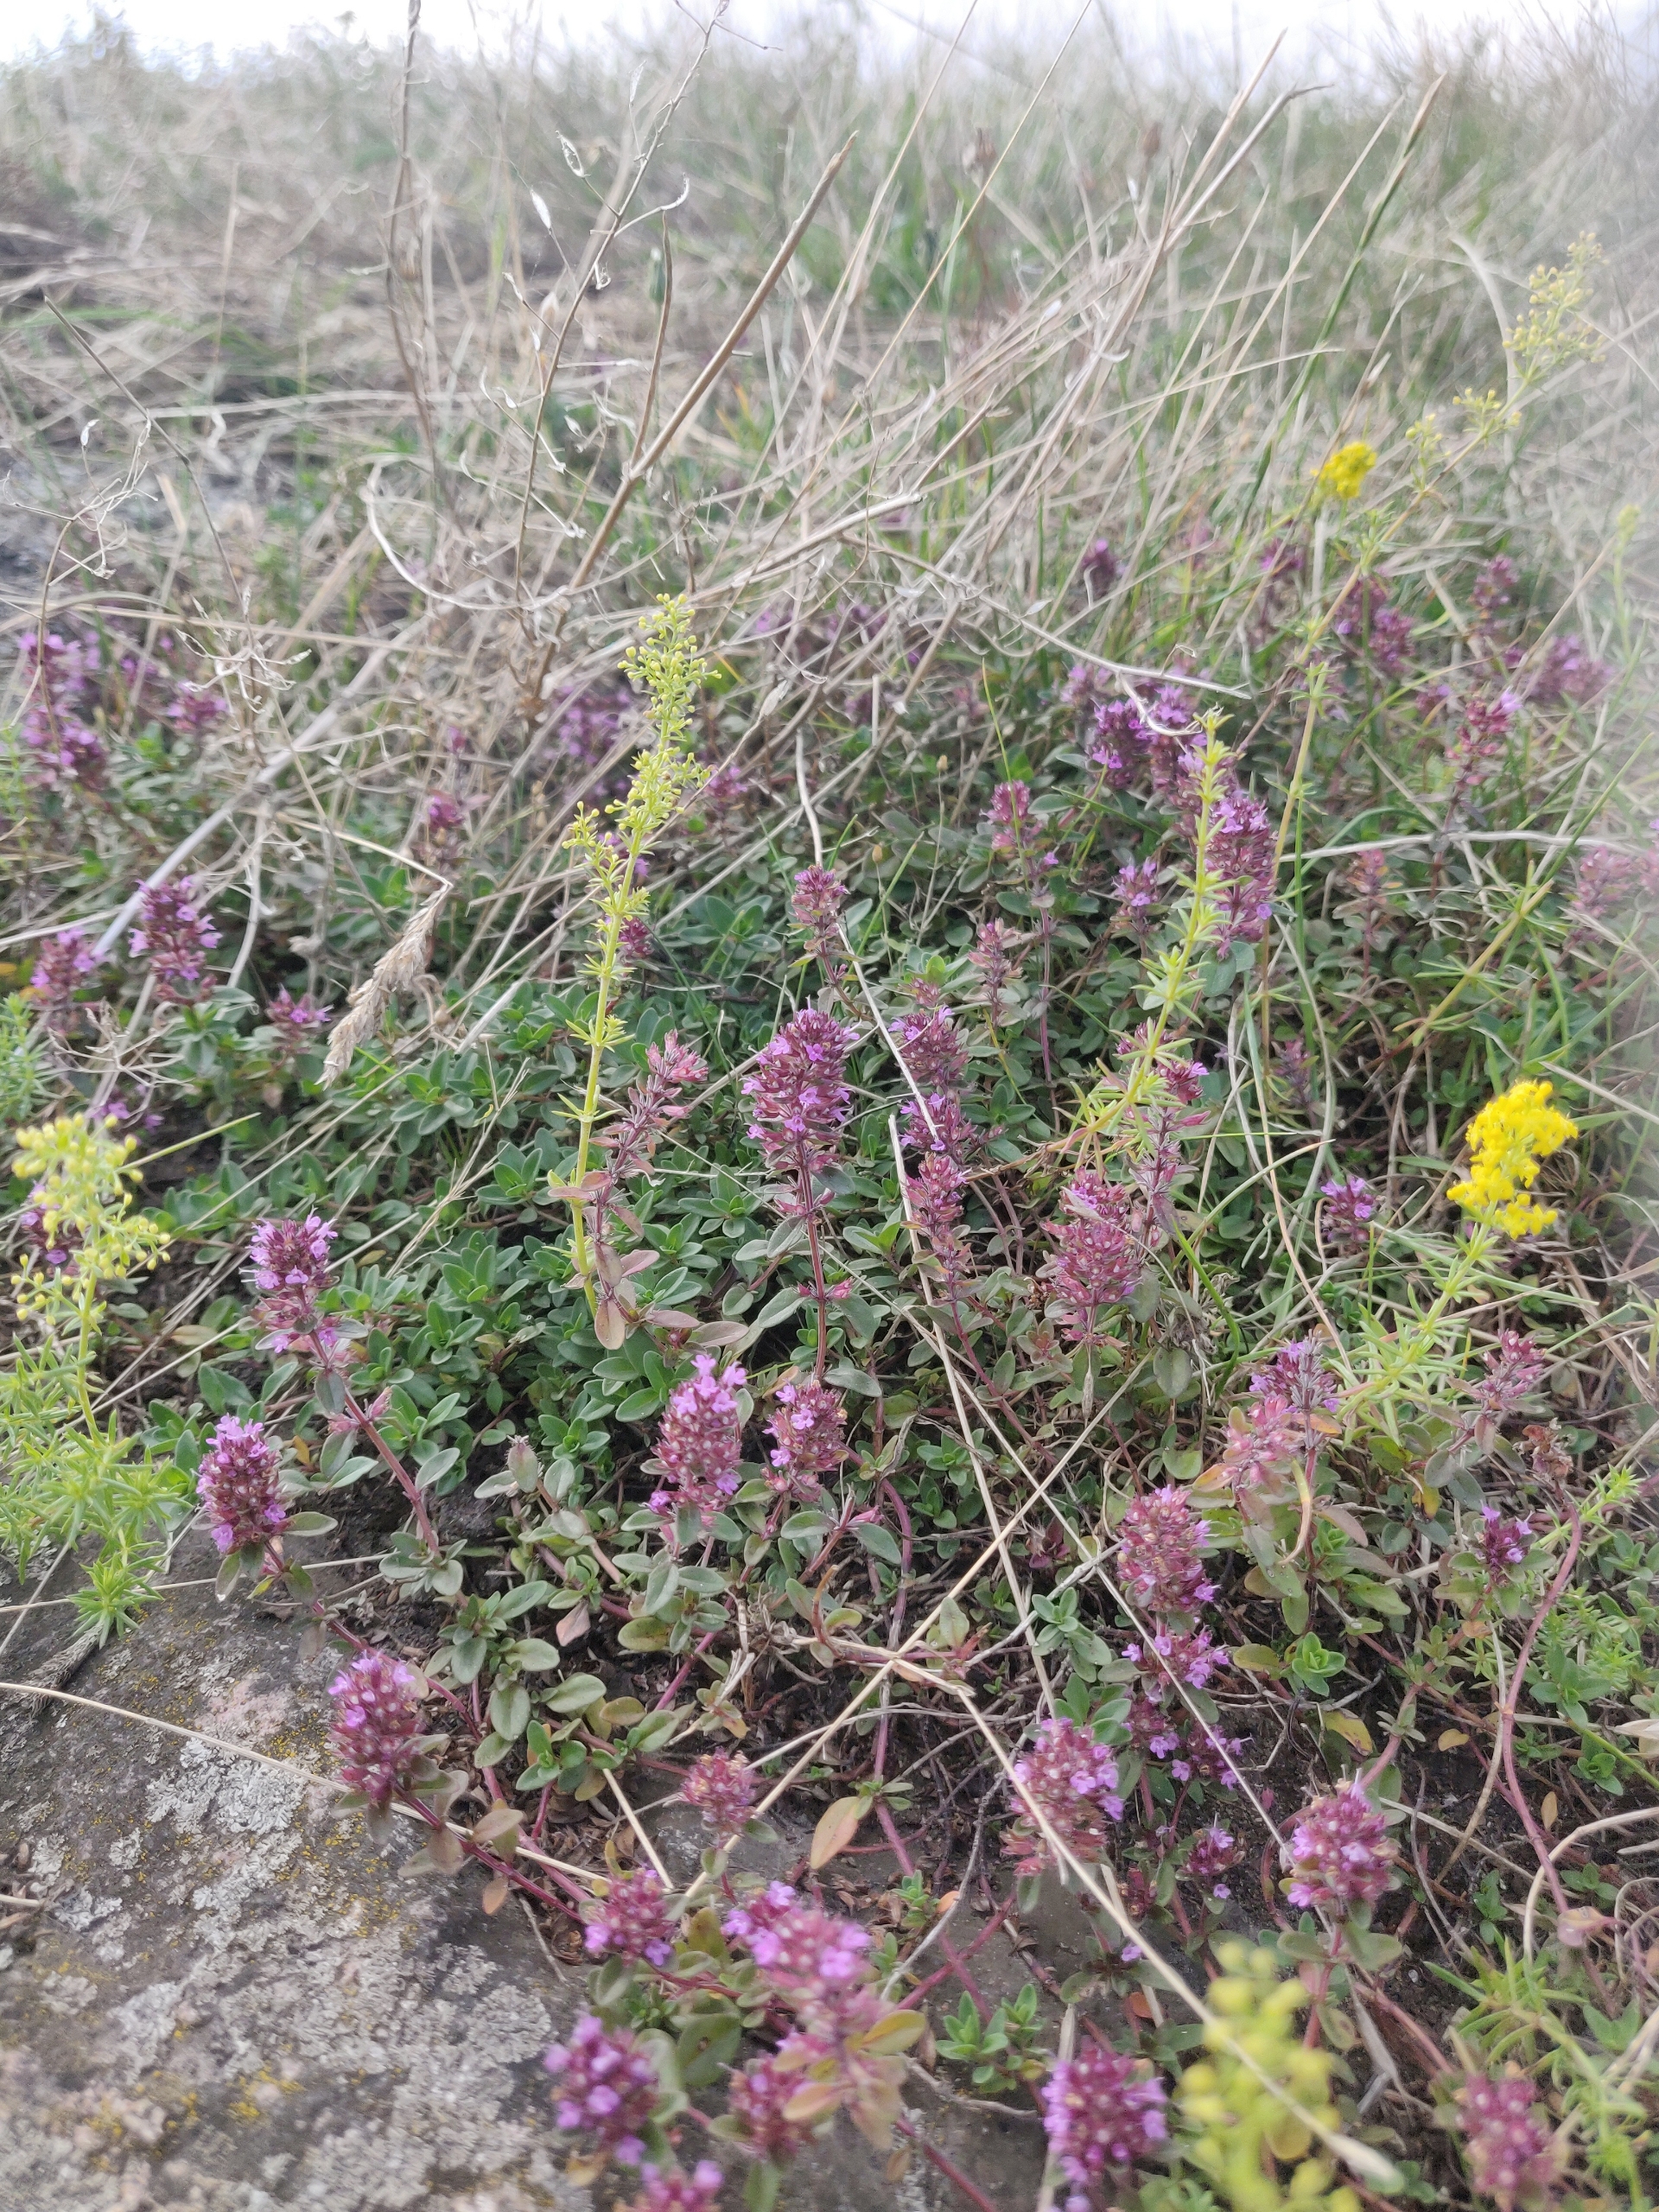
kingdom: Plantae
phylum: Tracheophyta
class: Magnoliopsida
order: Lamiales
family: Lamiaceae
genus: Thymus
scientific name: Thymus pulegioides
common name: Bredbladet timian
